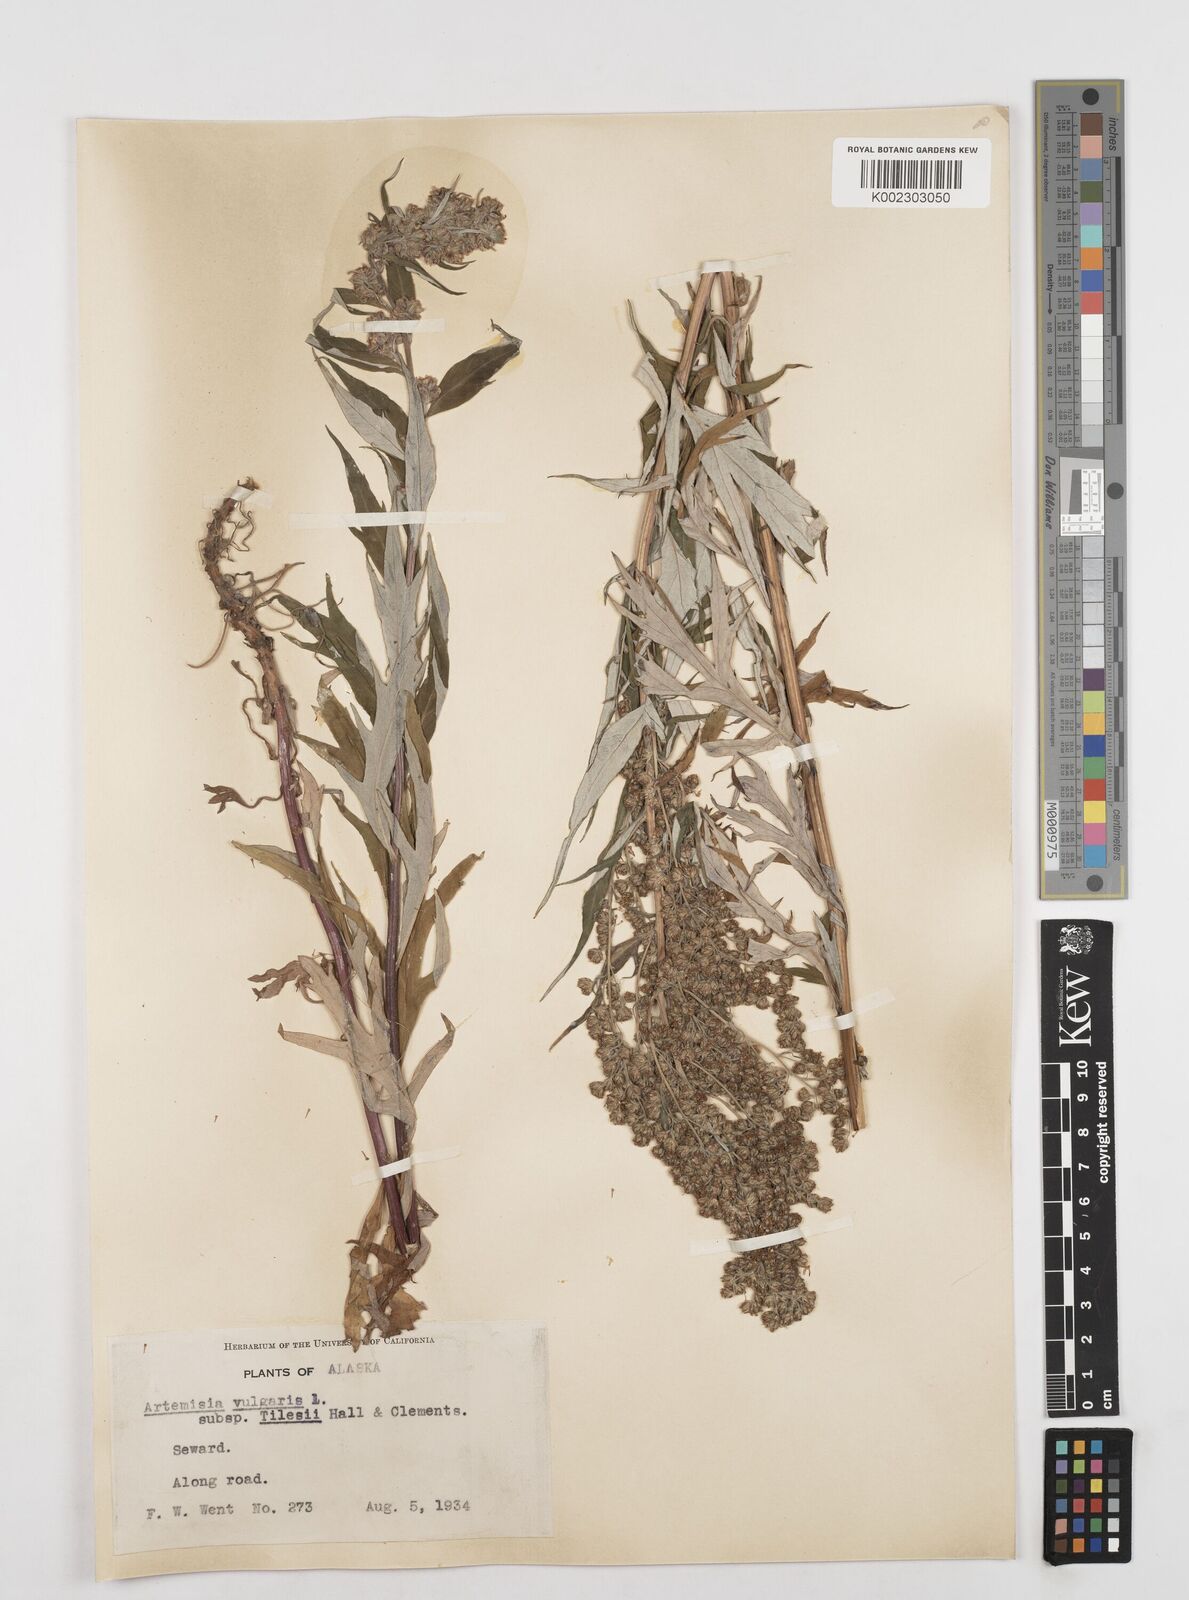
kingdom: Plantae
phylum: Tracheophyta
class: Magnoliopsida
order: Asterales
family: Asteraceae
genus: Artemisia
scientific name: Artemisia tilesii
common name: Aleutian mugwort
